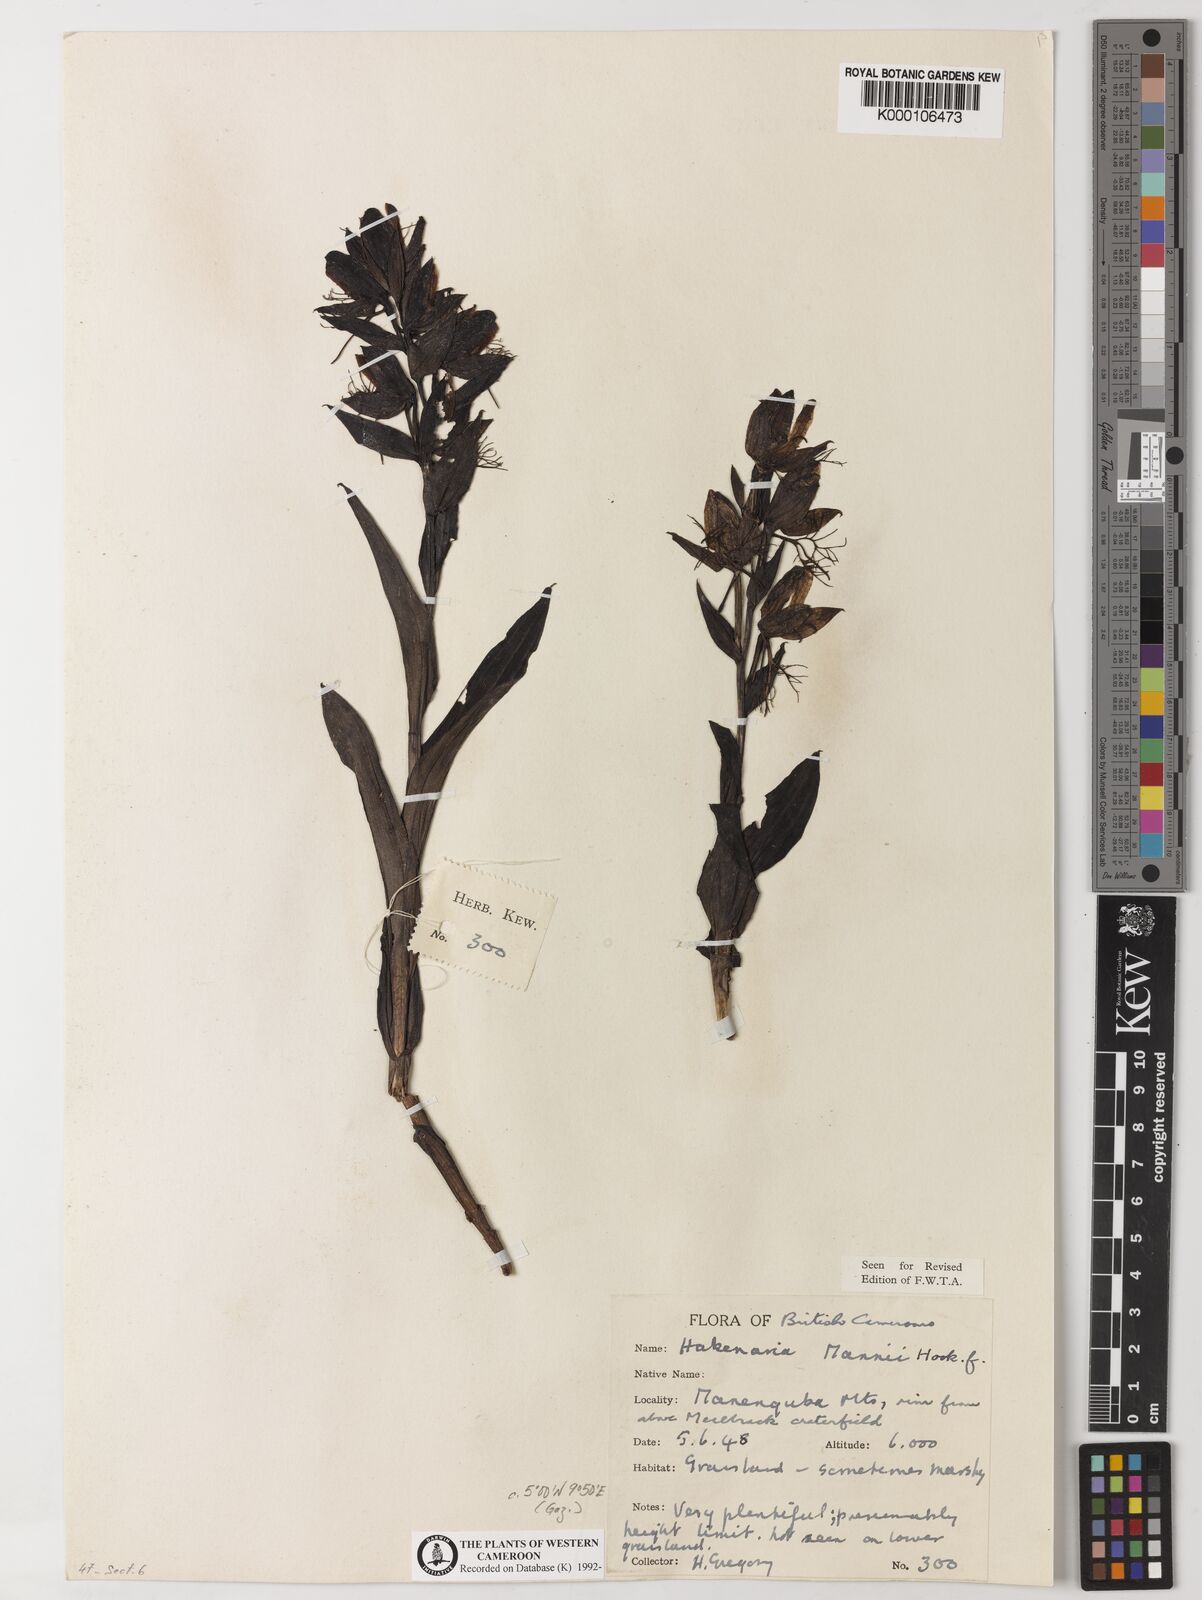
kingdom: Plantae
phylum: Tracheophyta
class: Liliopsida
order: Asparagales
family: Orchidaceae
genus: Habenaria
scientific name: Habenaria mannii
